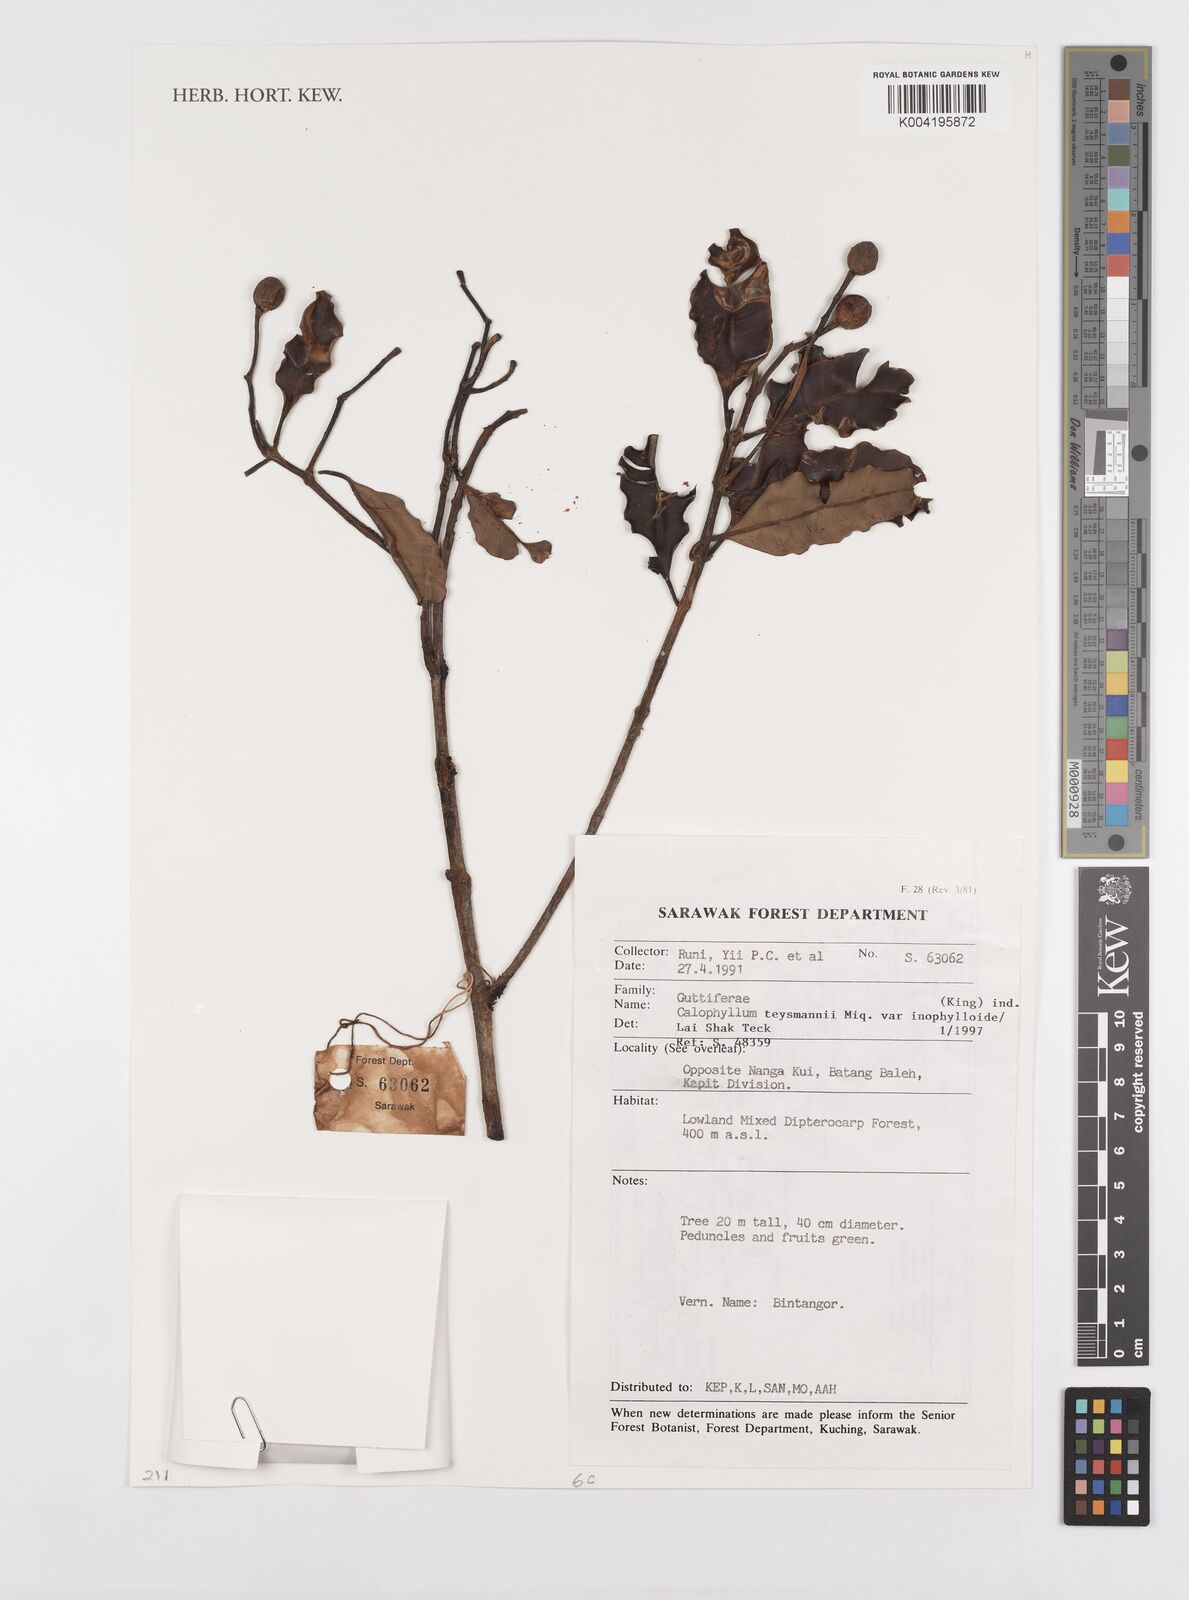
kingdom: Plantae
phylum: Tracheophyta
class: Magnoliopsida
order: Malpighiales
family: Calophyllaceae
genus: Calophyllum
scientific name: Calophyllum teysmannii
